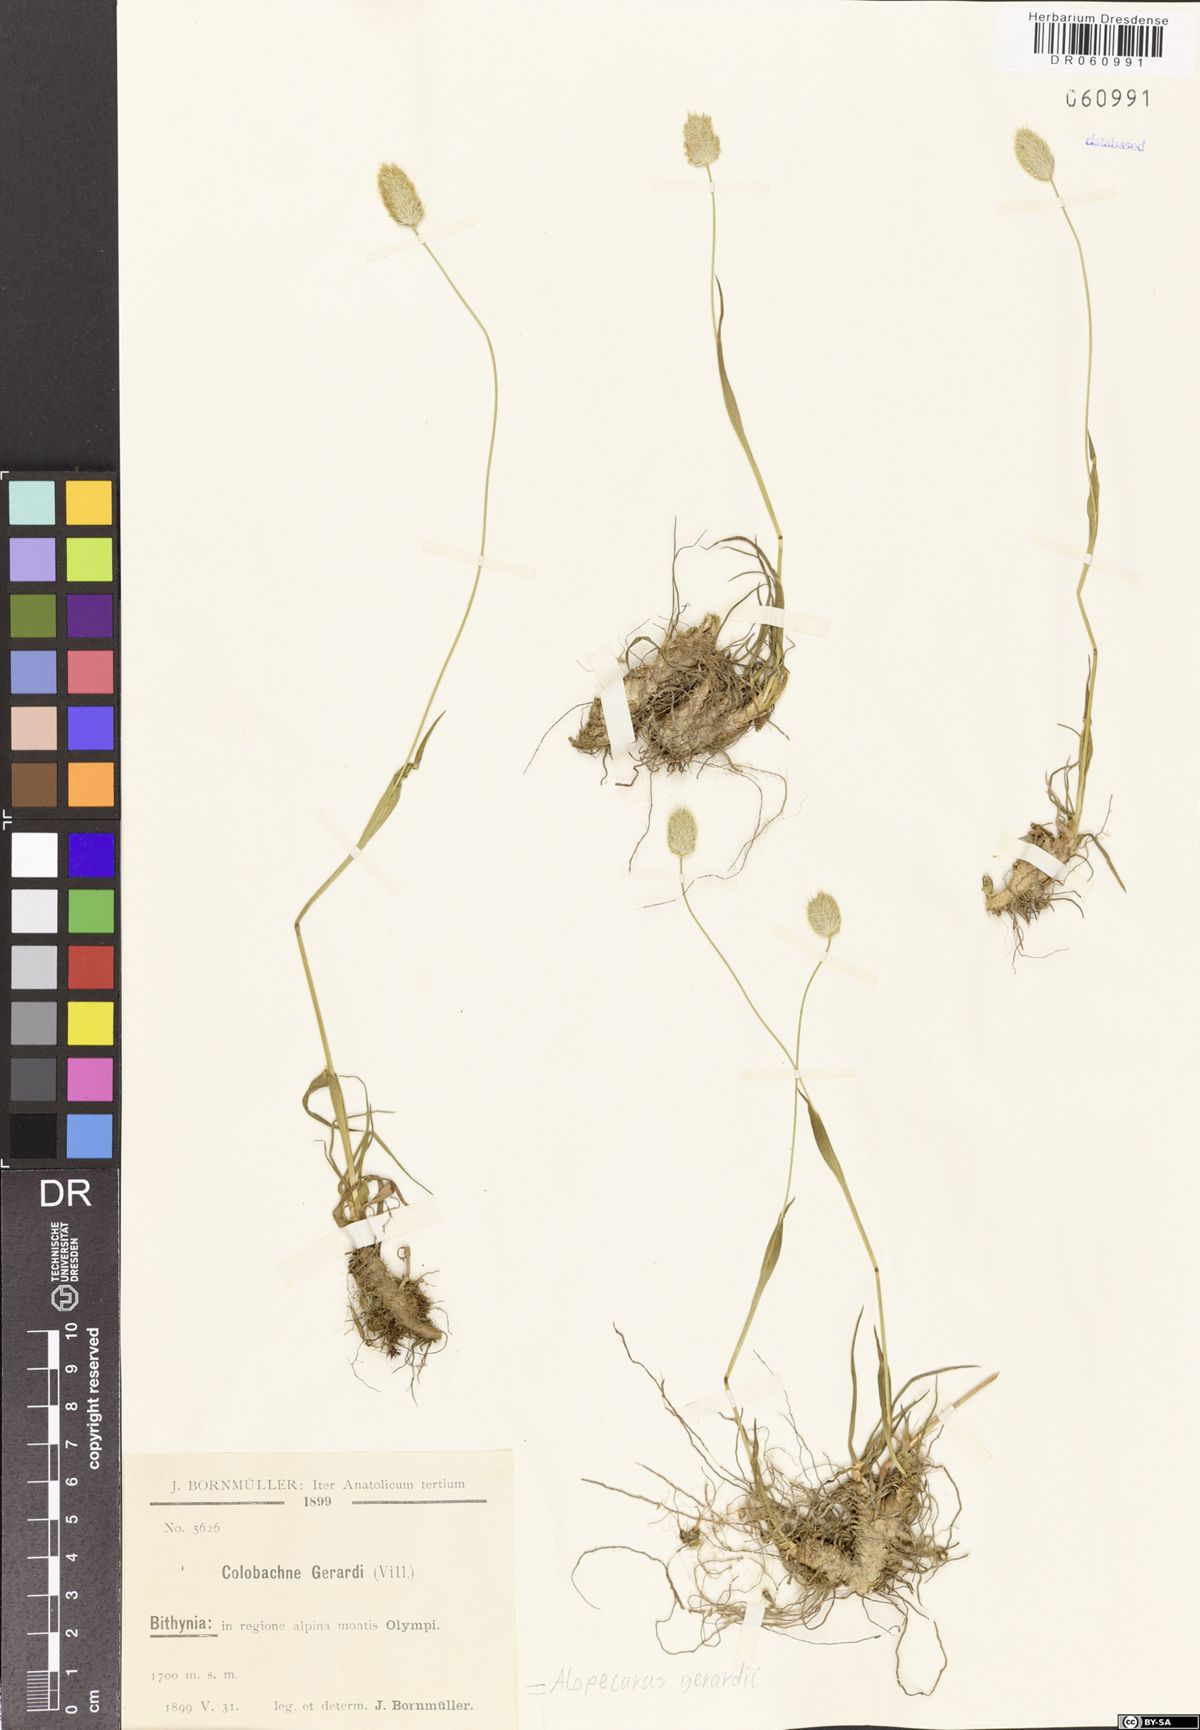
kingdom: Plantae
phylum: Tracheophyta
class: Liliopsida
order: Poales
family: Poaceae
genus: Alopecurus
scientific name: Alopecurus gerardii
